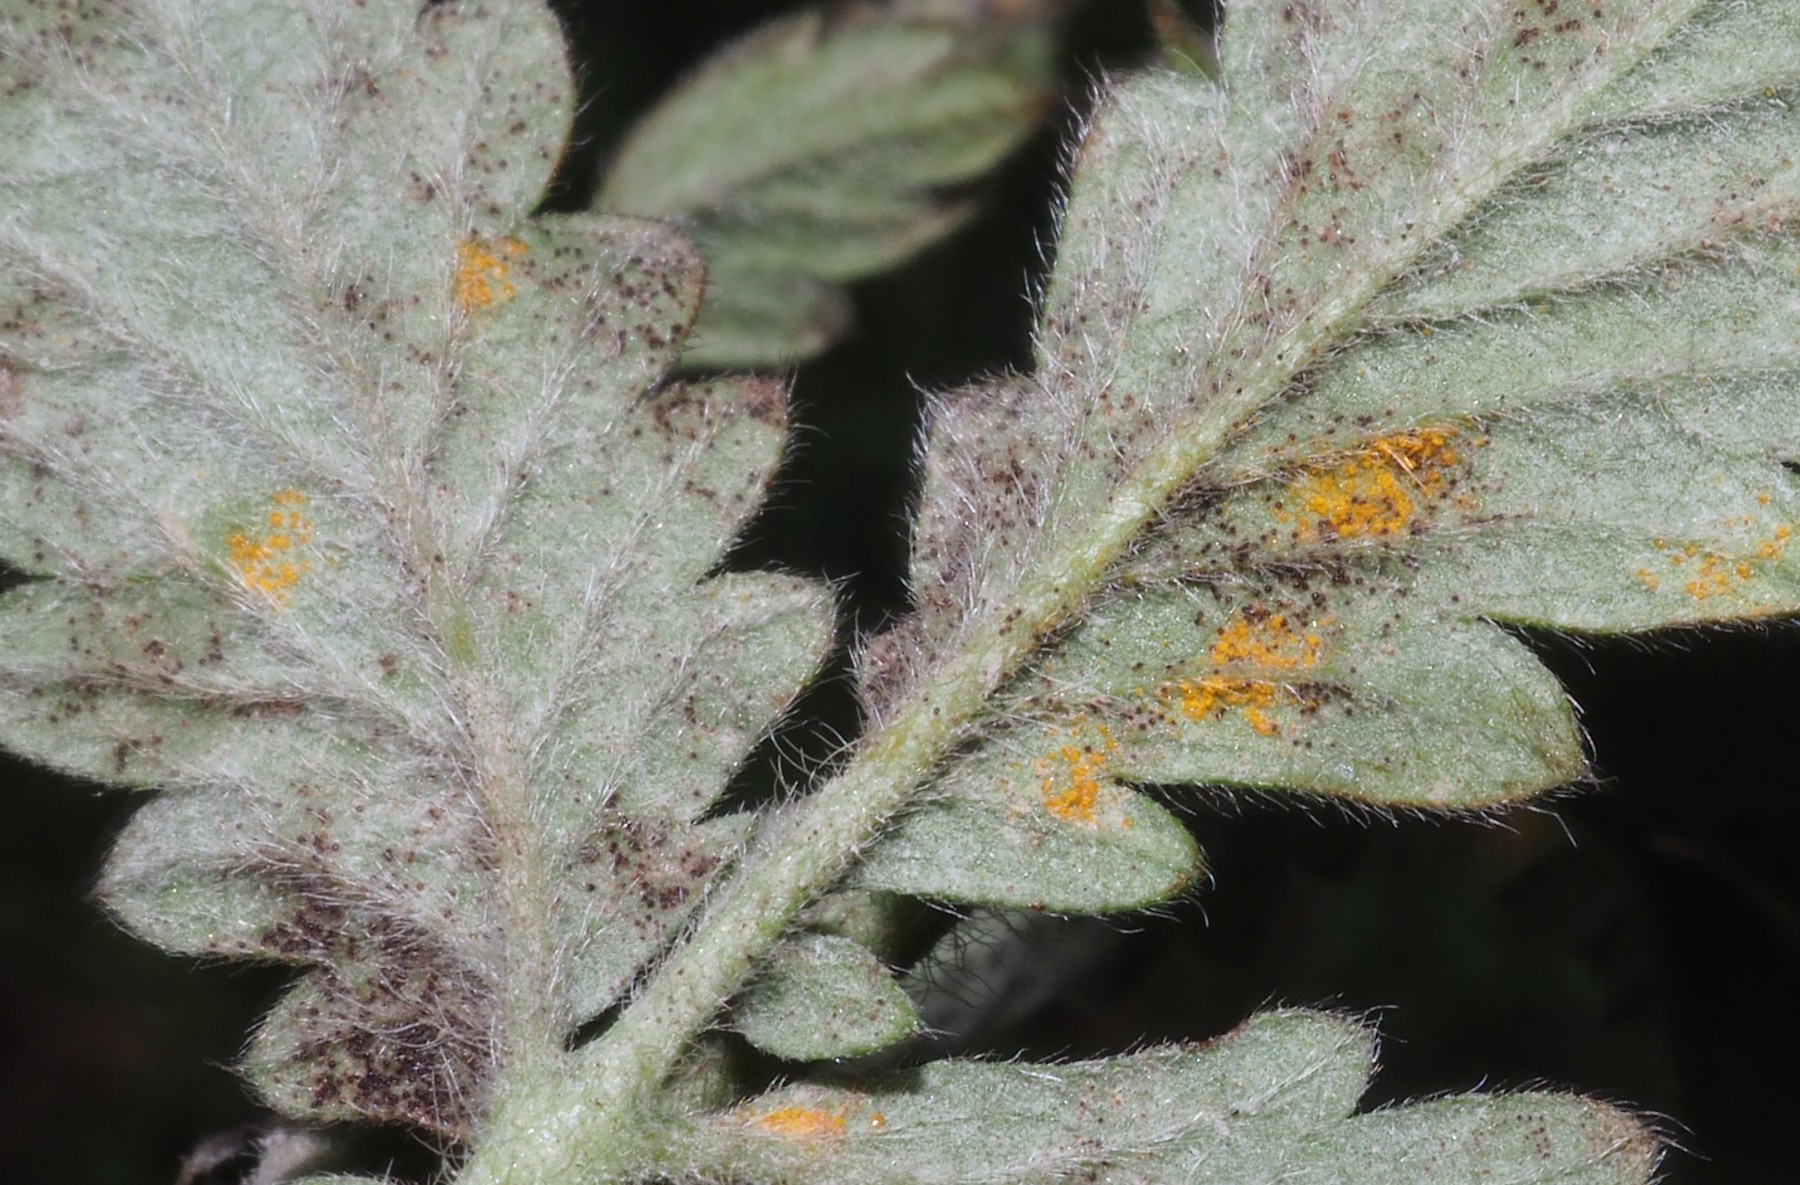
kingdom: Fungi
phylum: Basidiomycota
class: Pucciniomycetes
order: Pucciniales
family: Cronartiaceae
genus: Quasipucciniastrum
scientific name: Quasipucciniastrum ochraceum
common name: agermåne-nålerust
